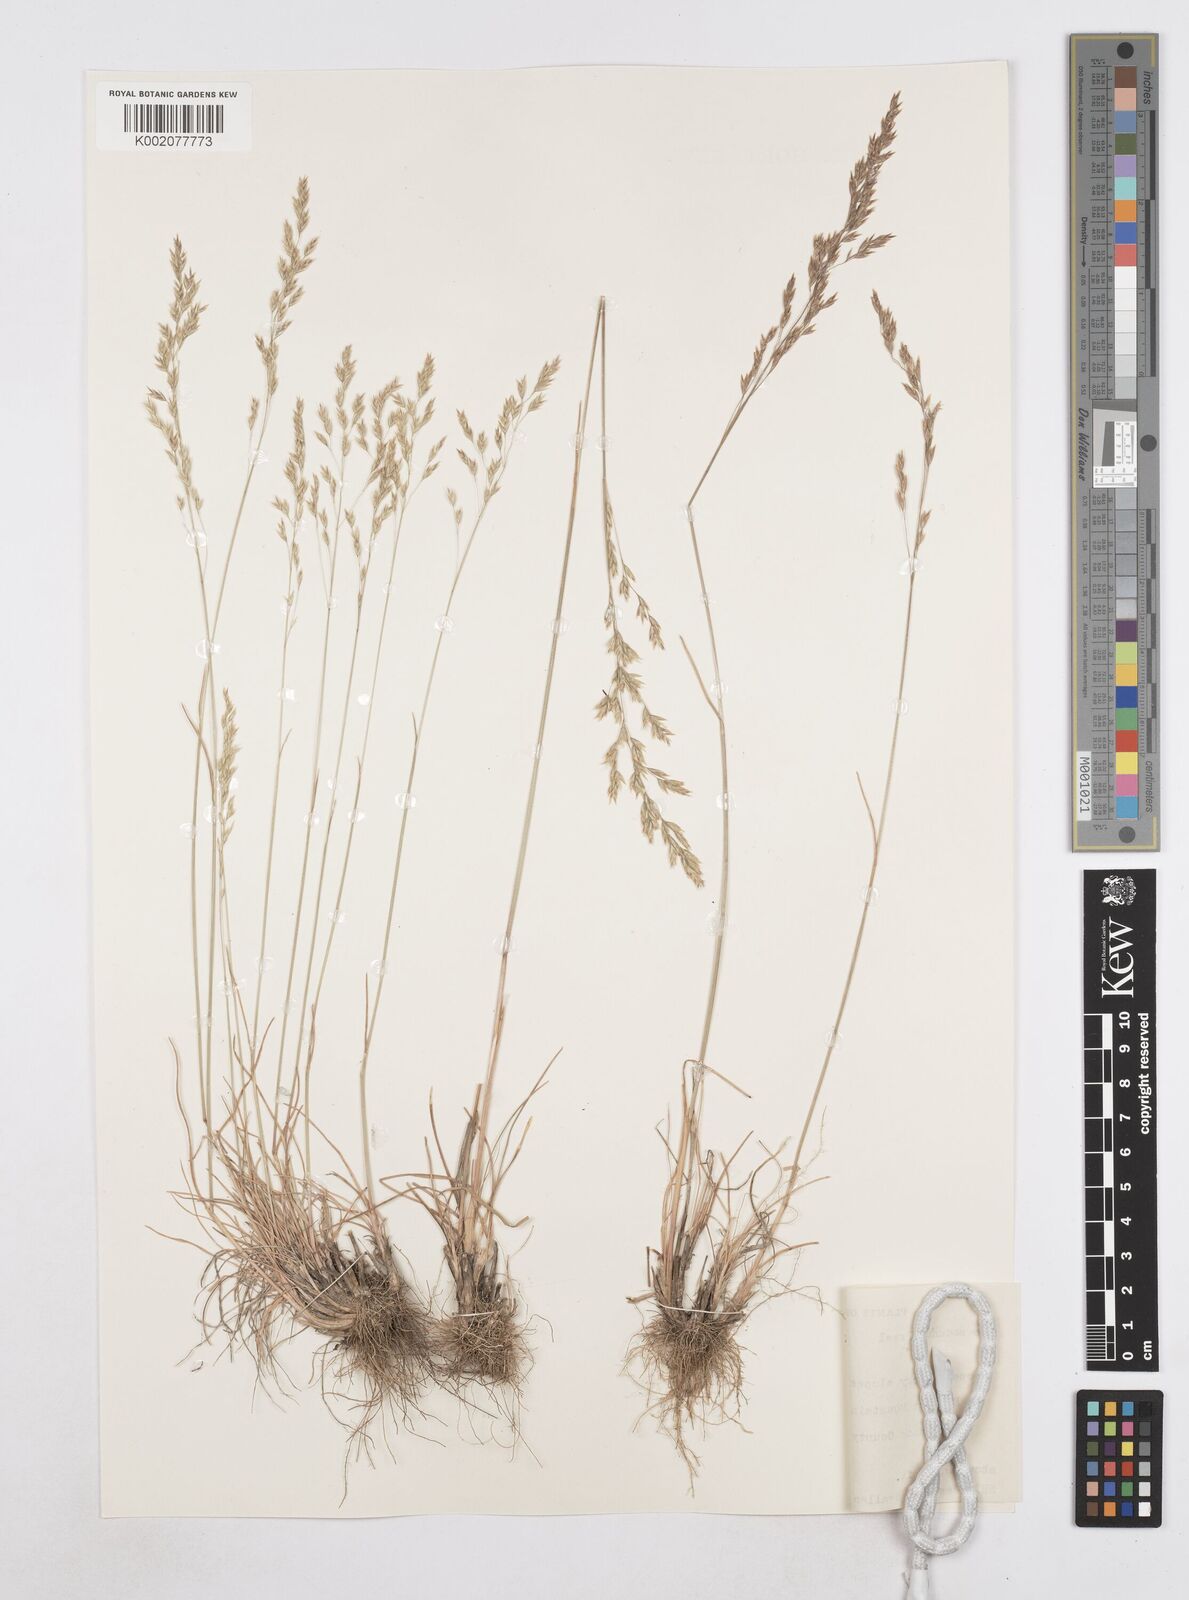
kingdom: Plantae
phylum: Tracheophyta
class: Liliopsida
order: Poales
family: Poaceae
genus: Poa
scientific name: Poa secunda
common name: Sandberg bluegrass
